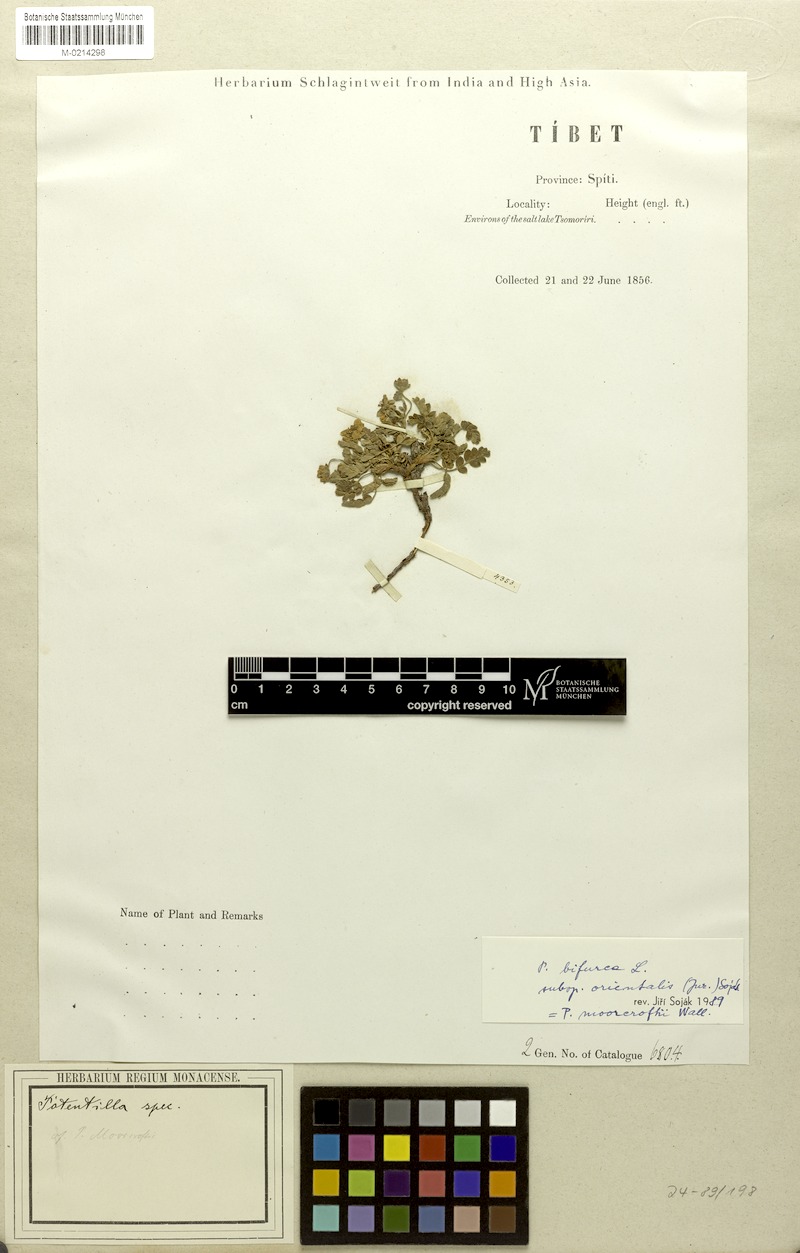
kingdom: Plantae
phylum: Tracheophyta
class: Magnoliopsida
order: Rosales
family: Rosaceae
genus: Sibbaldianthe
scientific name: Sibbaldianthe bifurca
